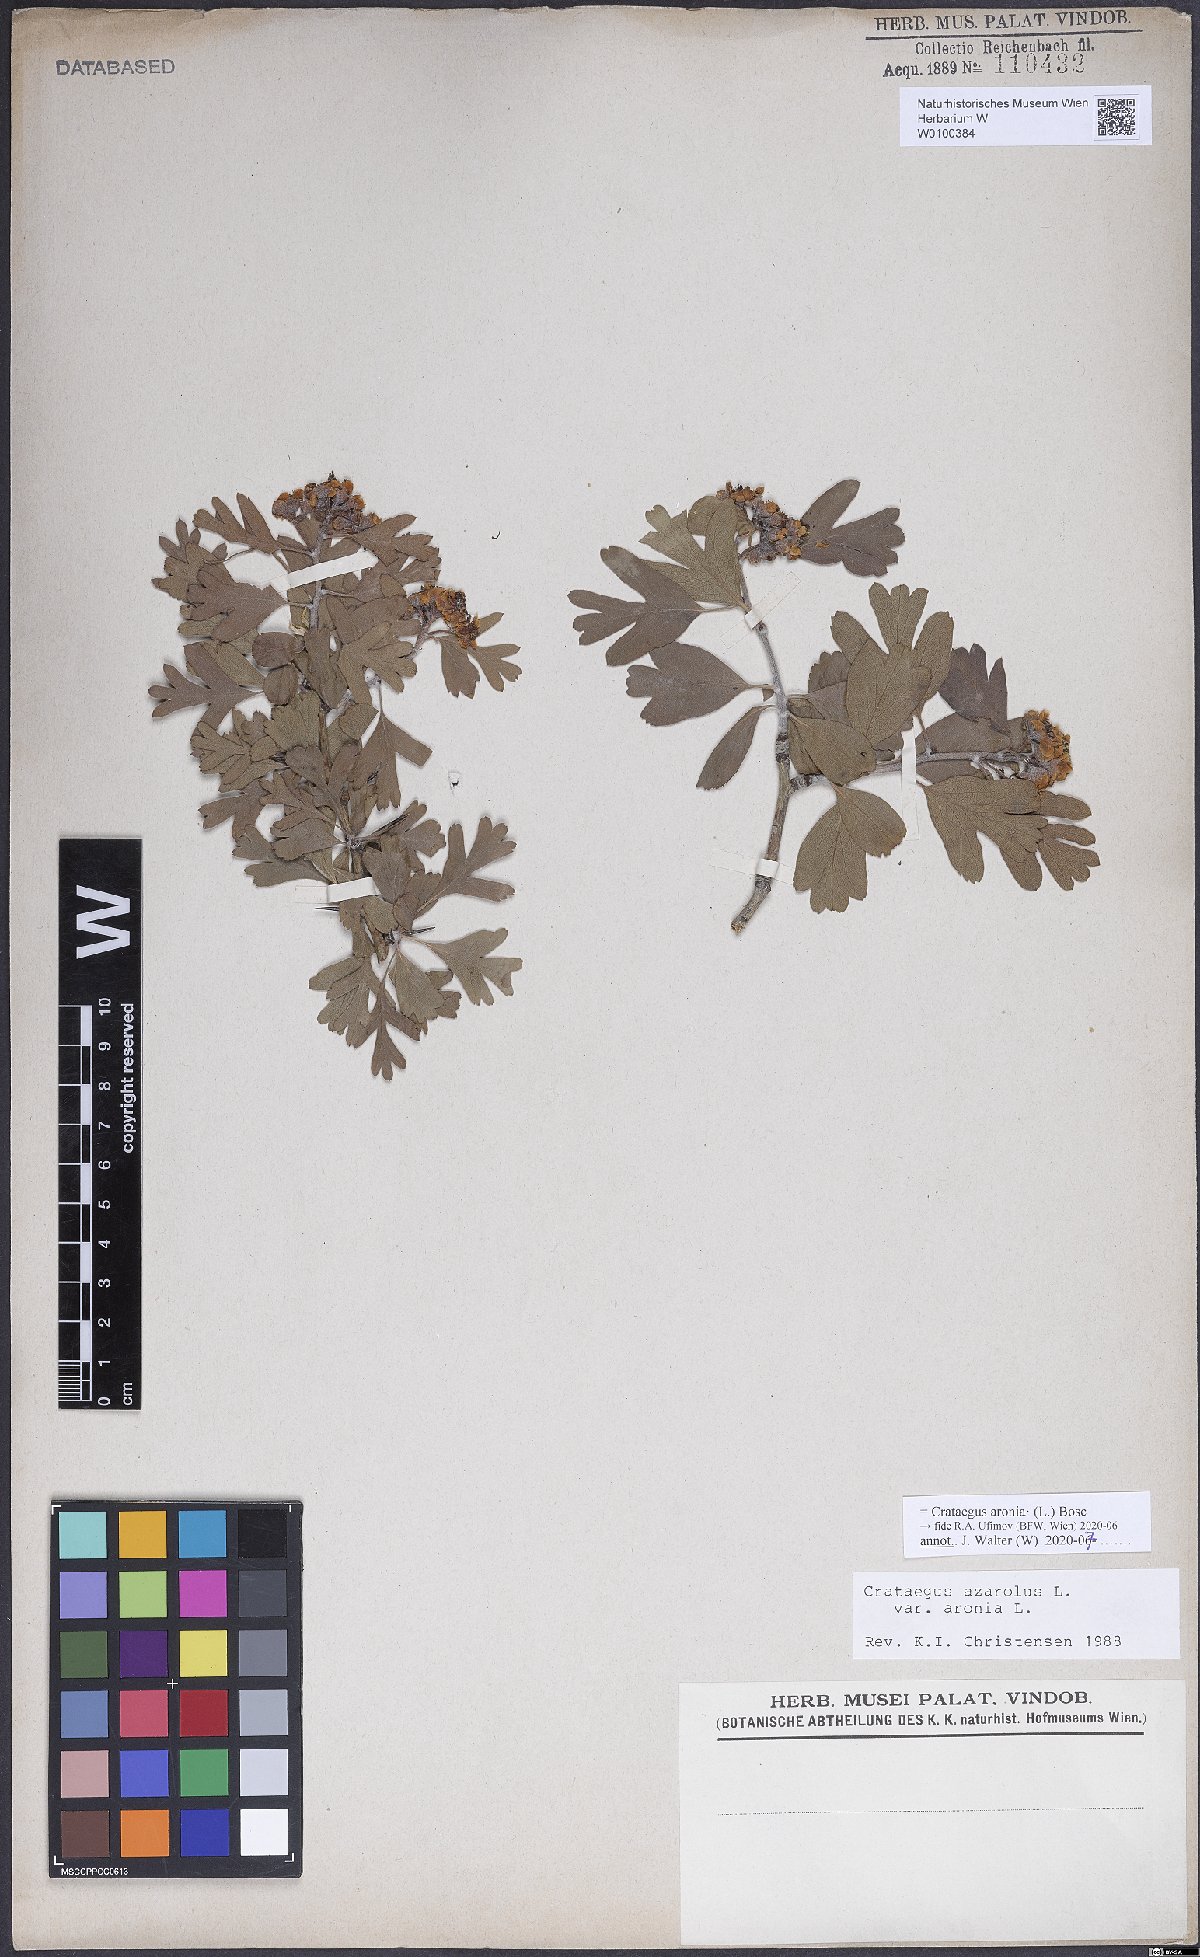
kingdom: Plantae
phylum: Tracheophyta
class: Magnoliopsida
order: Rosales
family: Rosaceae
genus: Crataegus
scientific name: Crataegus azarolus
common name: Azarole
